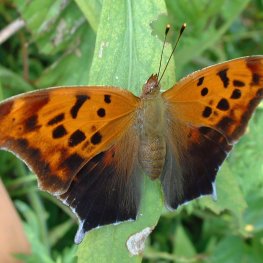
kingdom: Animalia
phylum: Arthropoda
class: Insecta
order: Lepidoptera
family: Nymphalidae
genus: Polygonia
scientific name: Polygonia interrogationis
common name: Question Mark
